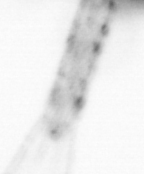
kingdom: Animalia
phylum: Arthropoda
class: Copepoda
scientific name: Copepoda
